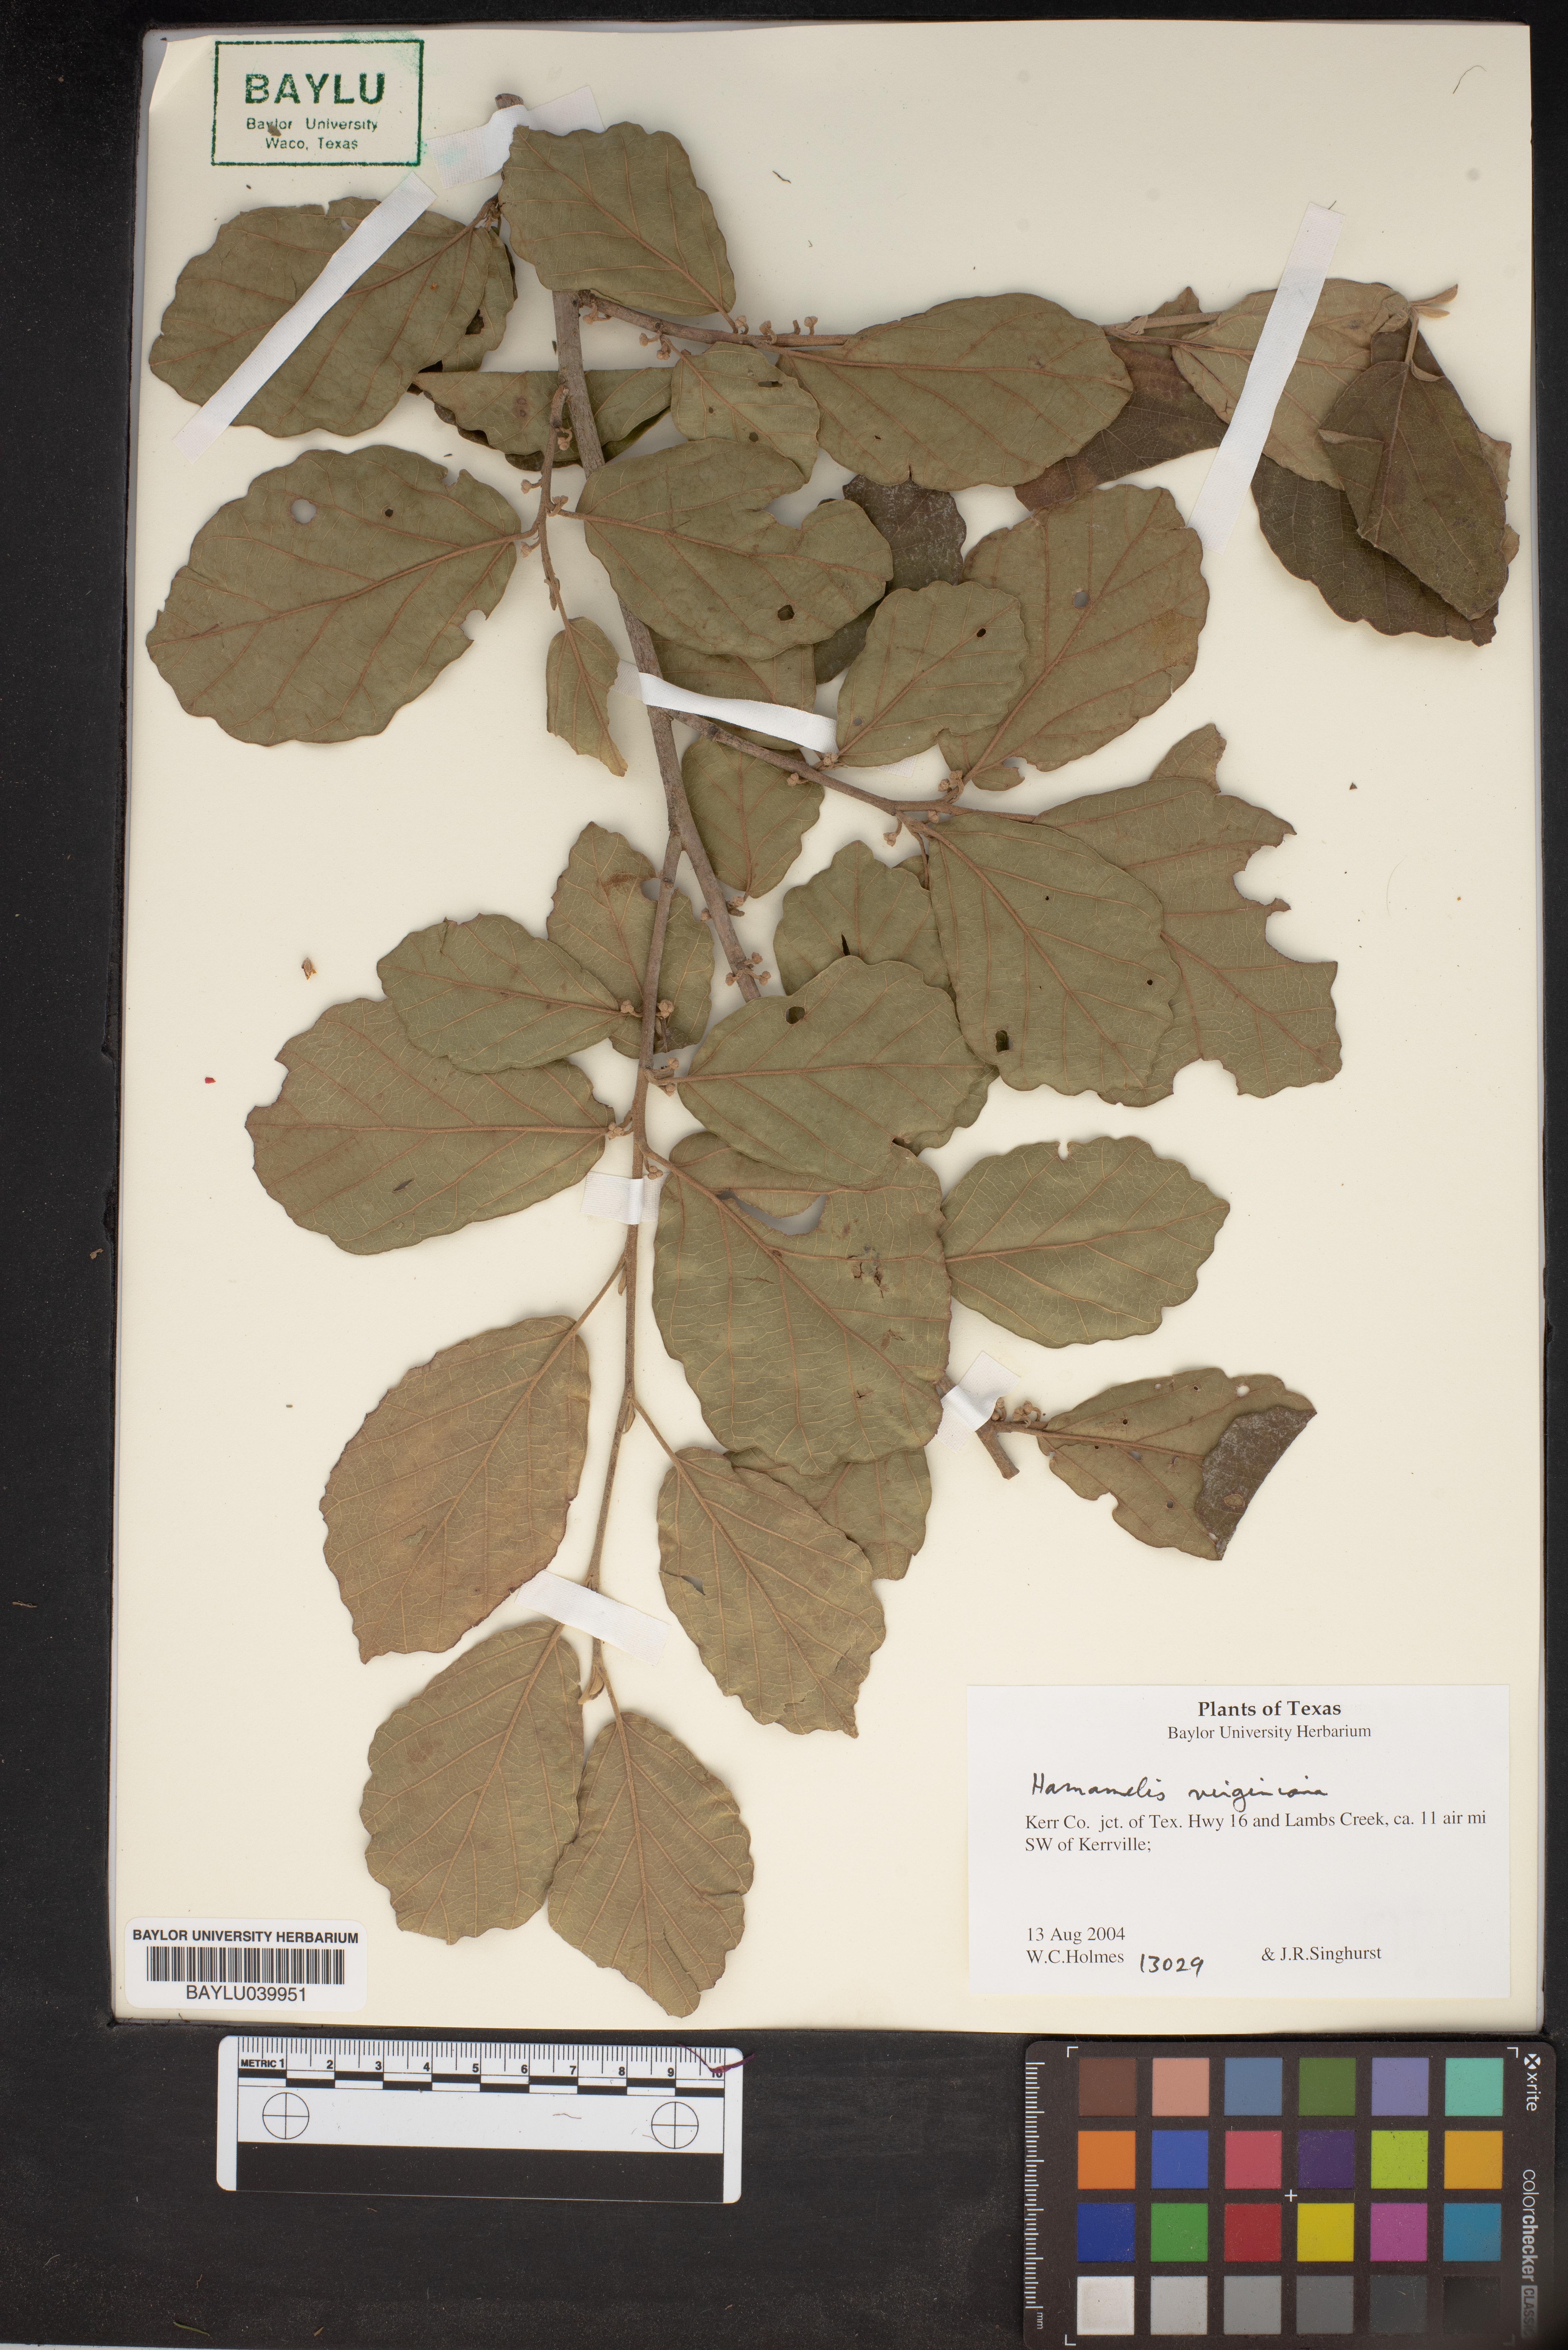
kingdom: Plantae
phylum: Tracheophyta
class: Magnoliopsida
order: Saxifragales
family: Hamamelidaceae
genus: Hamamelis
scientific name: Hamamelis virginiana
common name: Witch-hazel
